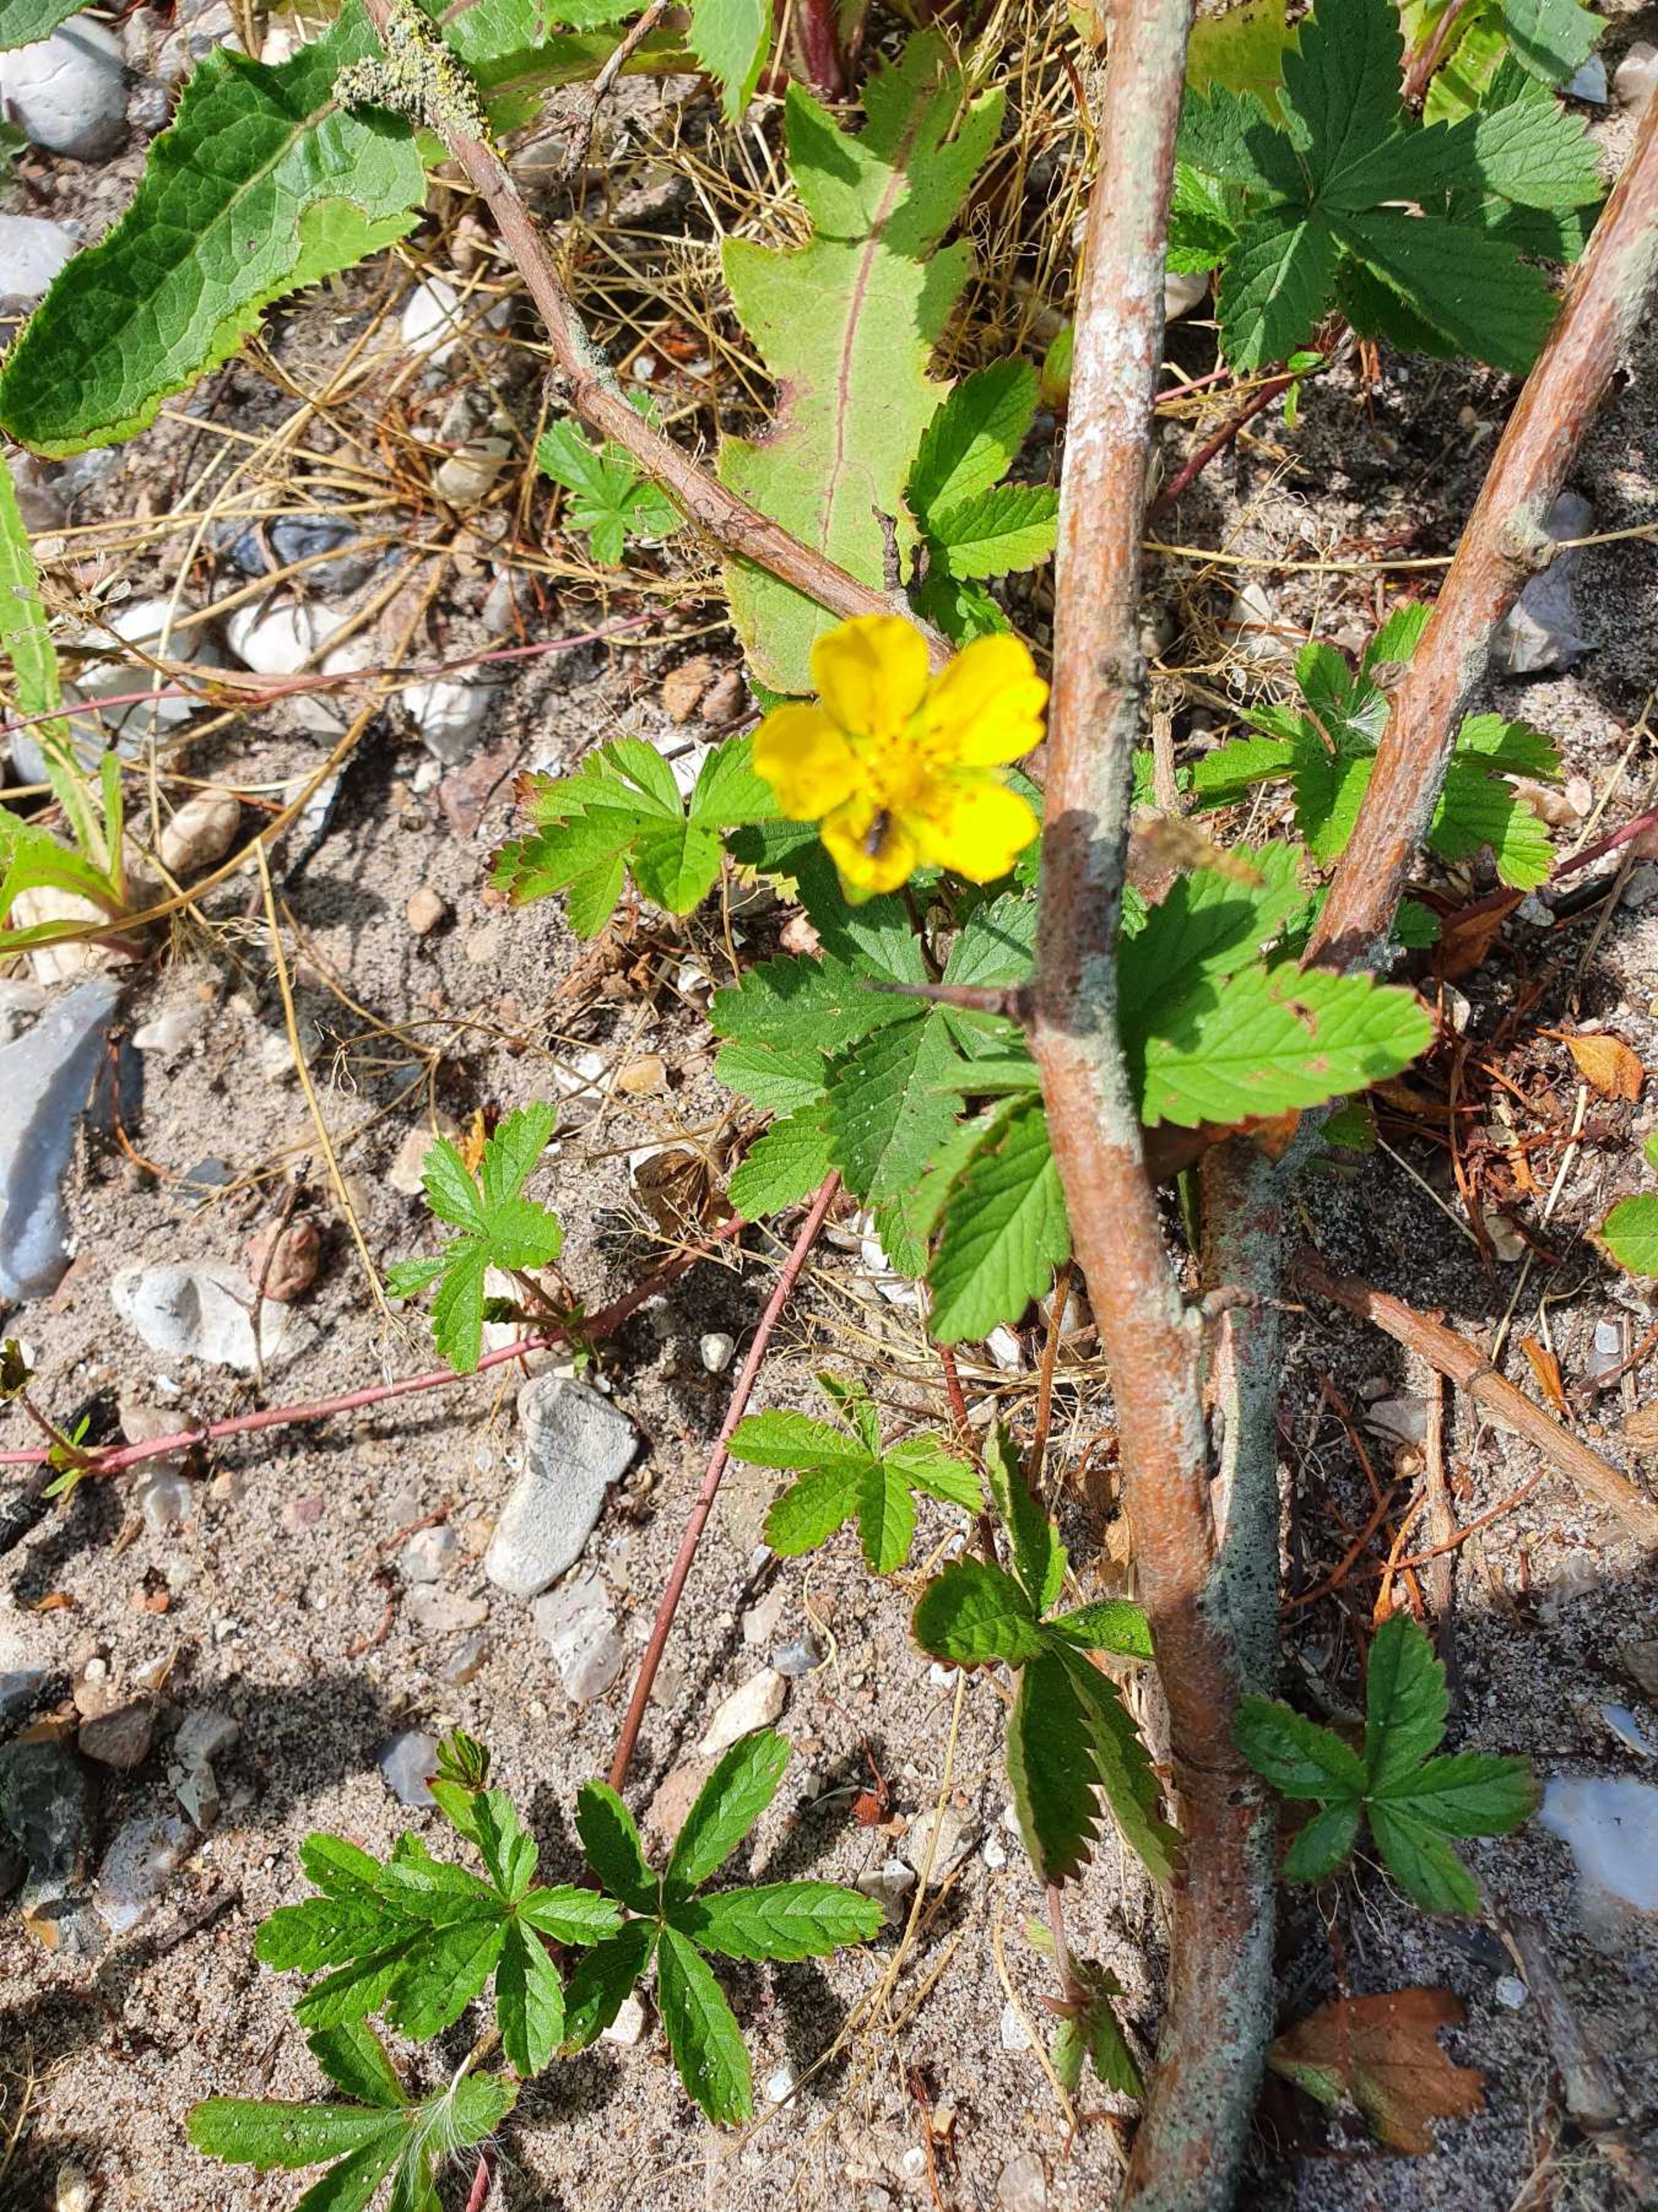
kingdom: Plantae
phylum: Tracheophyta
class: Magnoliopsida
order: Rosales
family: Rosaceae
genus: Potentilla
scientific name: Potentilla reptans
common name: Krybende potentil
